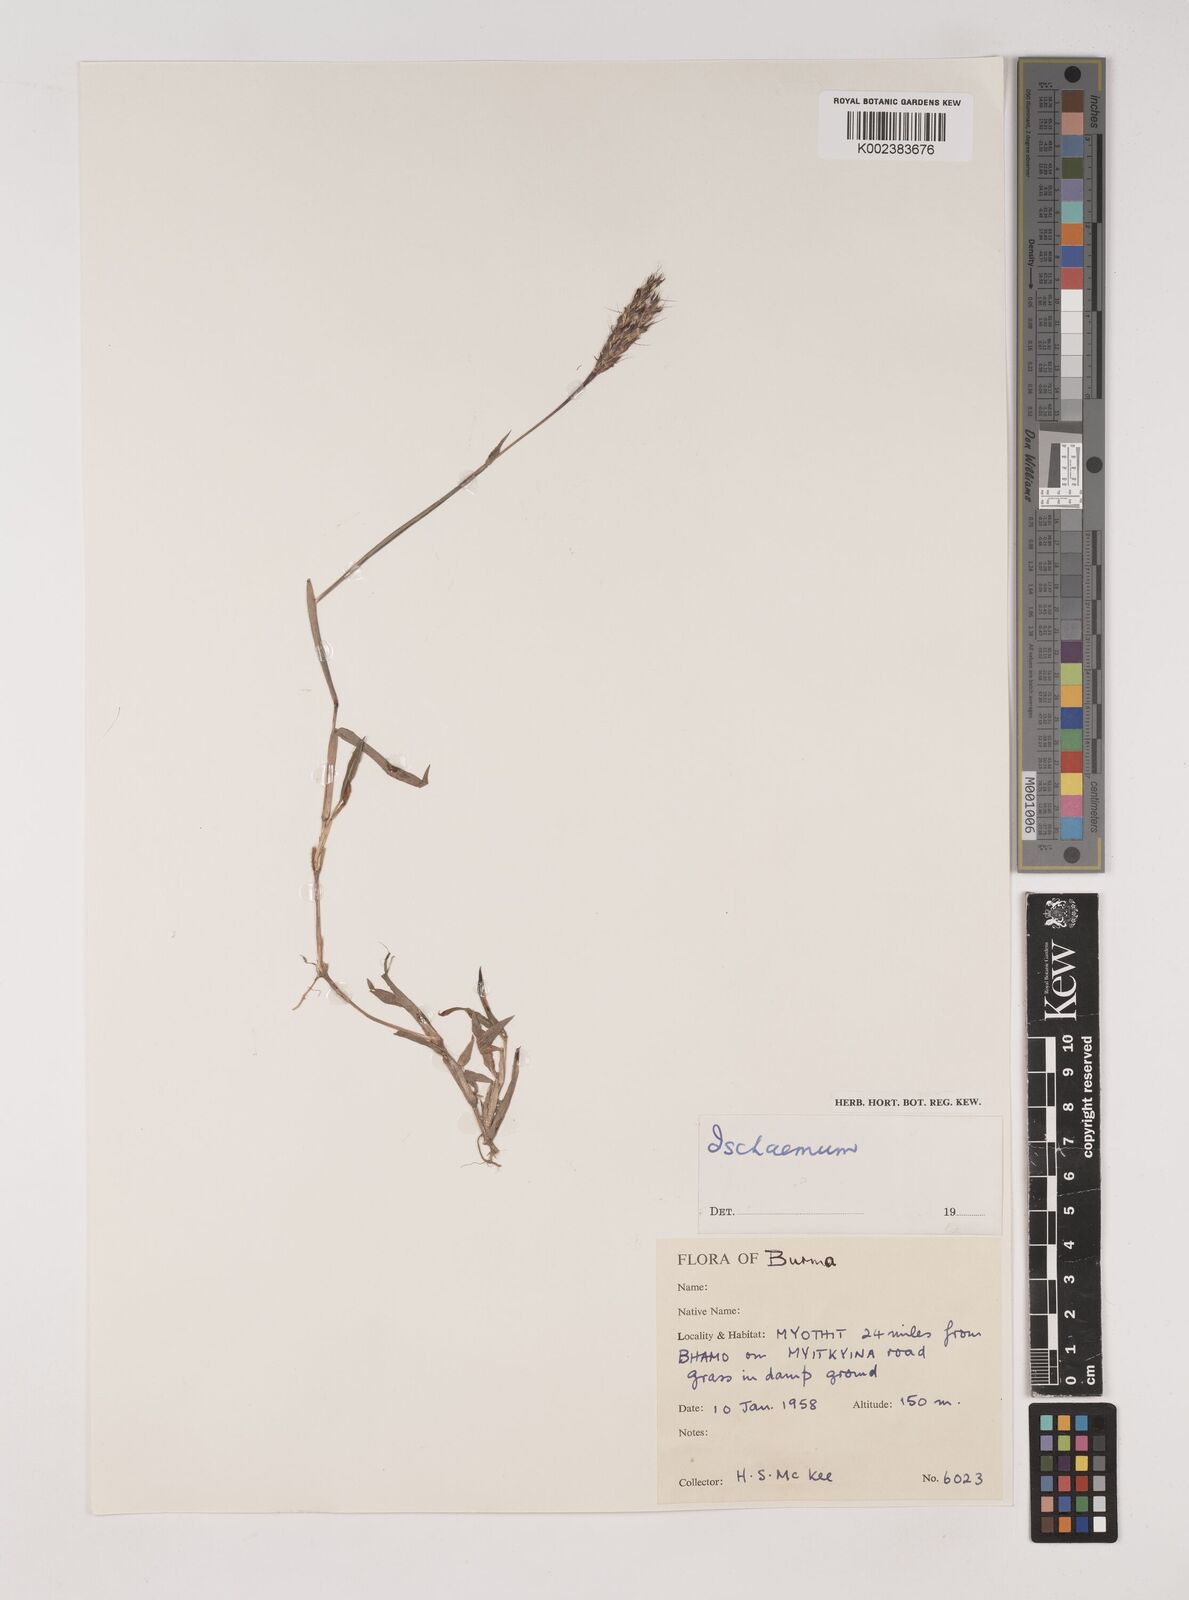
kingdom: Plantae
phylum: Tracheophyta
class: Liliopsida
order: Poales
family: Poaceae
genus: Ischaemum
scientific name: Ischaemum
